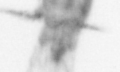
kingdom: Animalia
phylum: Arthropoda
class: Copepoda
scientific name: Copepoda
